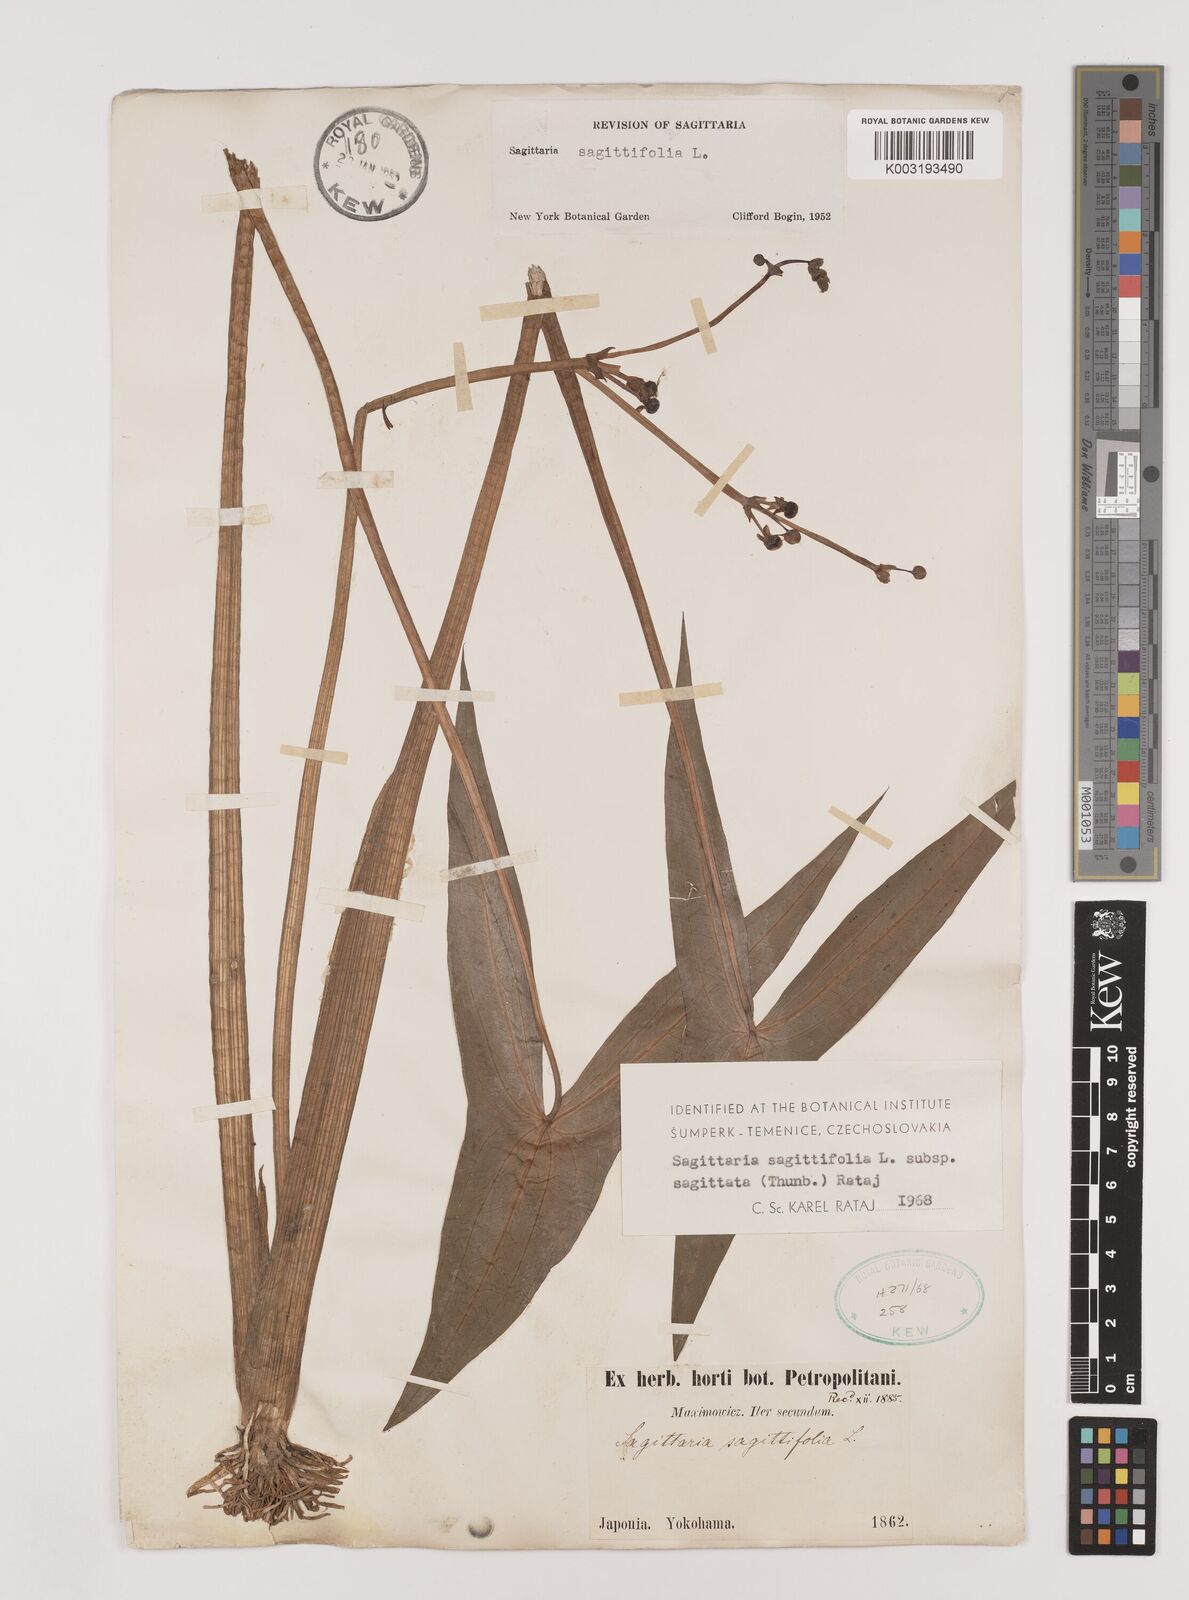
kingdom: Plantae
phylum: Tracheophyta
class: Liliopsida
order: Alismatales
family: Alismataceae
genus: Sagittaria
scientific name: Sagittaria sagittifolia
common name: Arrowhead
